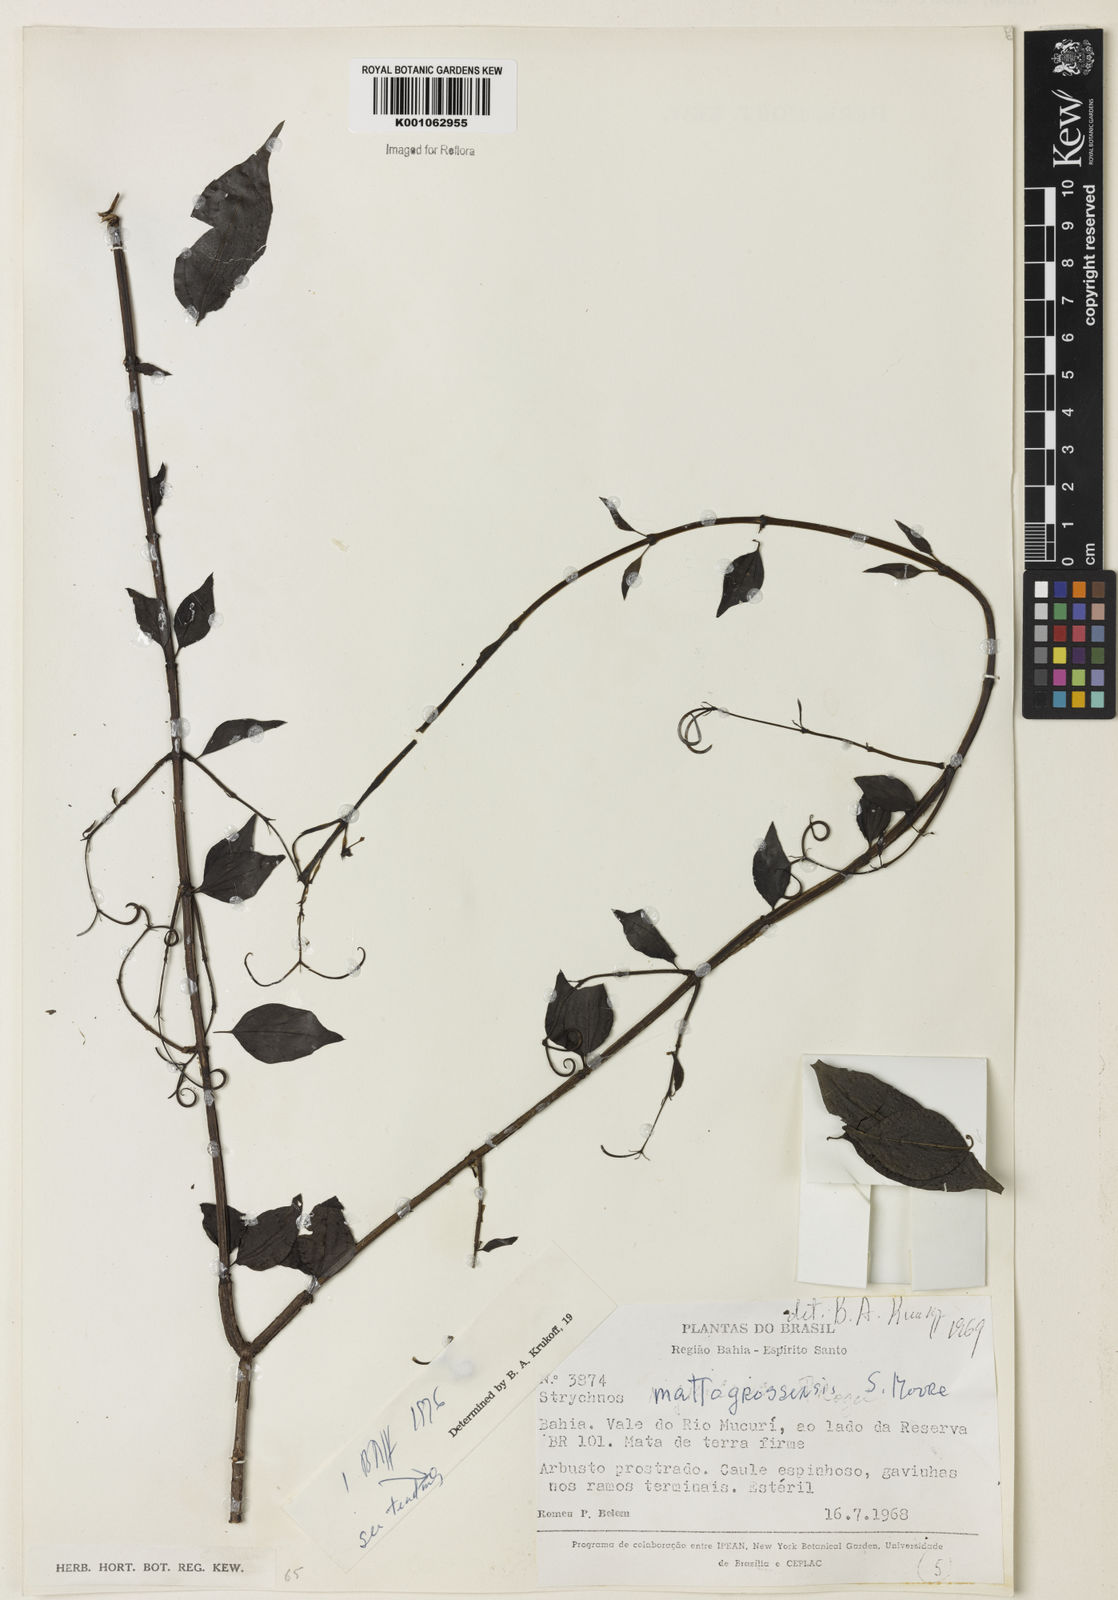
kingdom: Plantae
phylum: Tracheophyta
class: Magnoliopsida
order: Gentianales
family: Loganiaceae
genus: Strychnos
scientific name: Strychnos mattogrossensis
